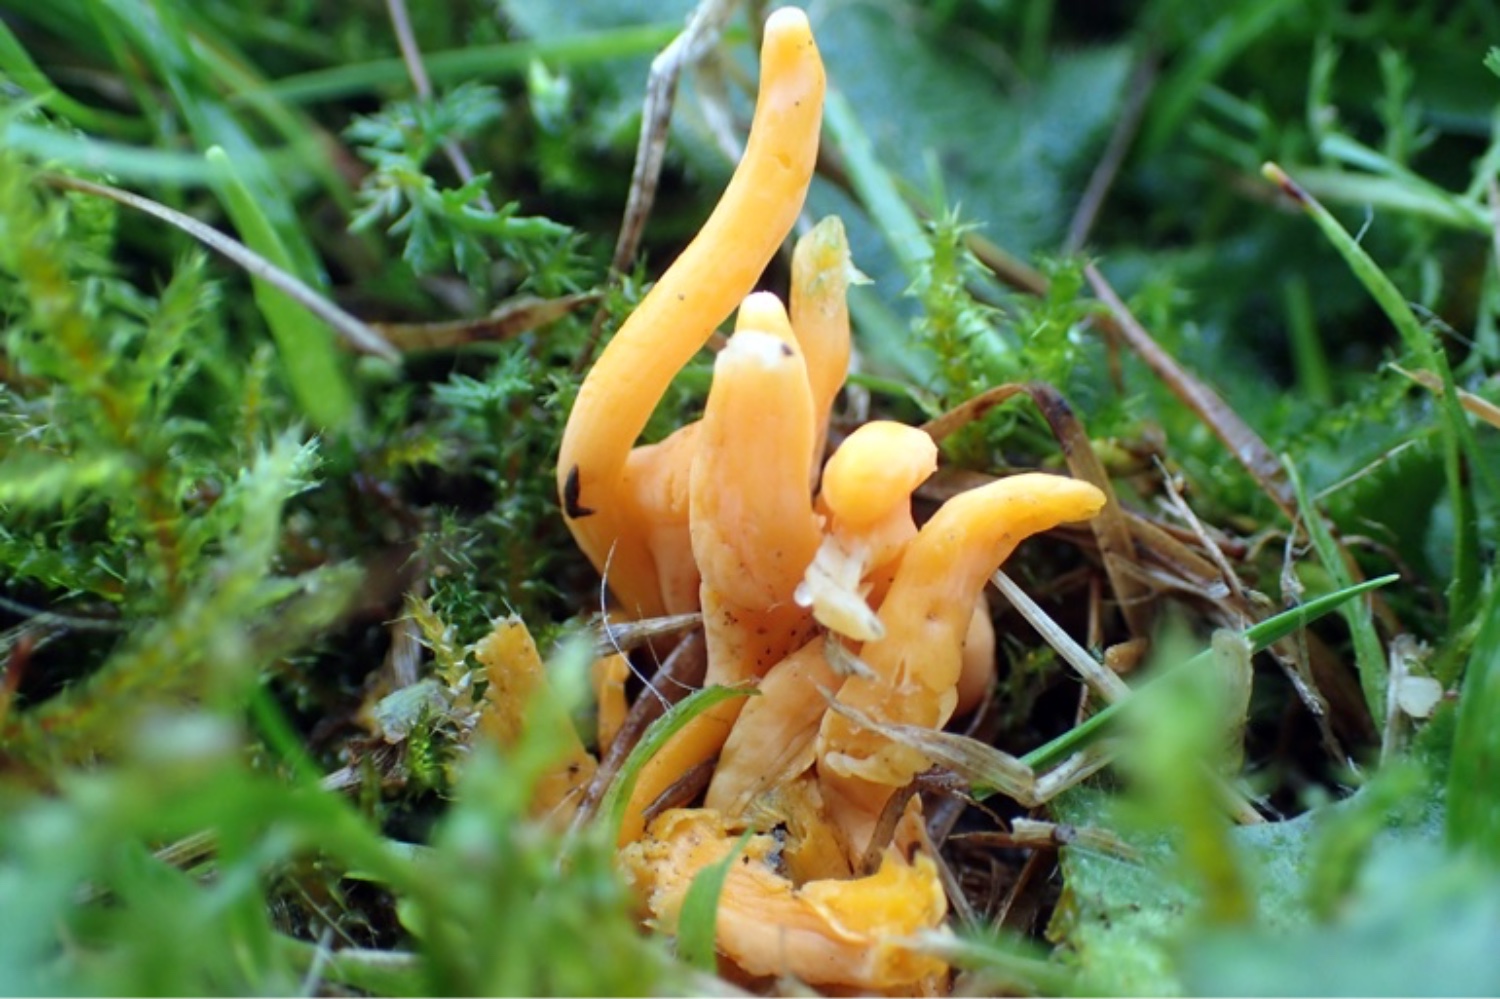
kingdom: Fungi
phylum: Basidiomycota
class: Agaricomycetes
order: Agaricales
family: Clavariaceae
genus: Clavulinopsis
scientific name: Clavulinopsis
